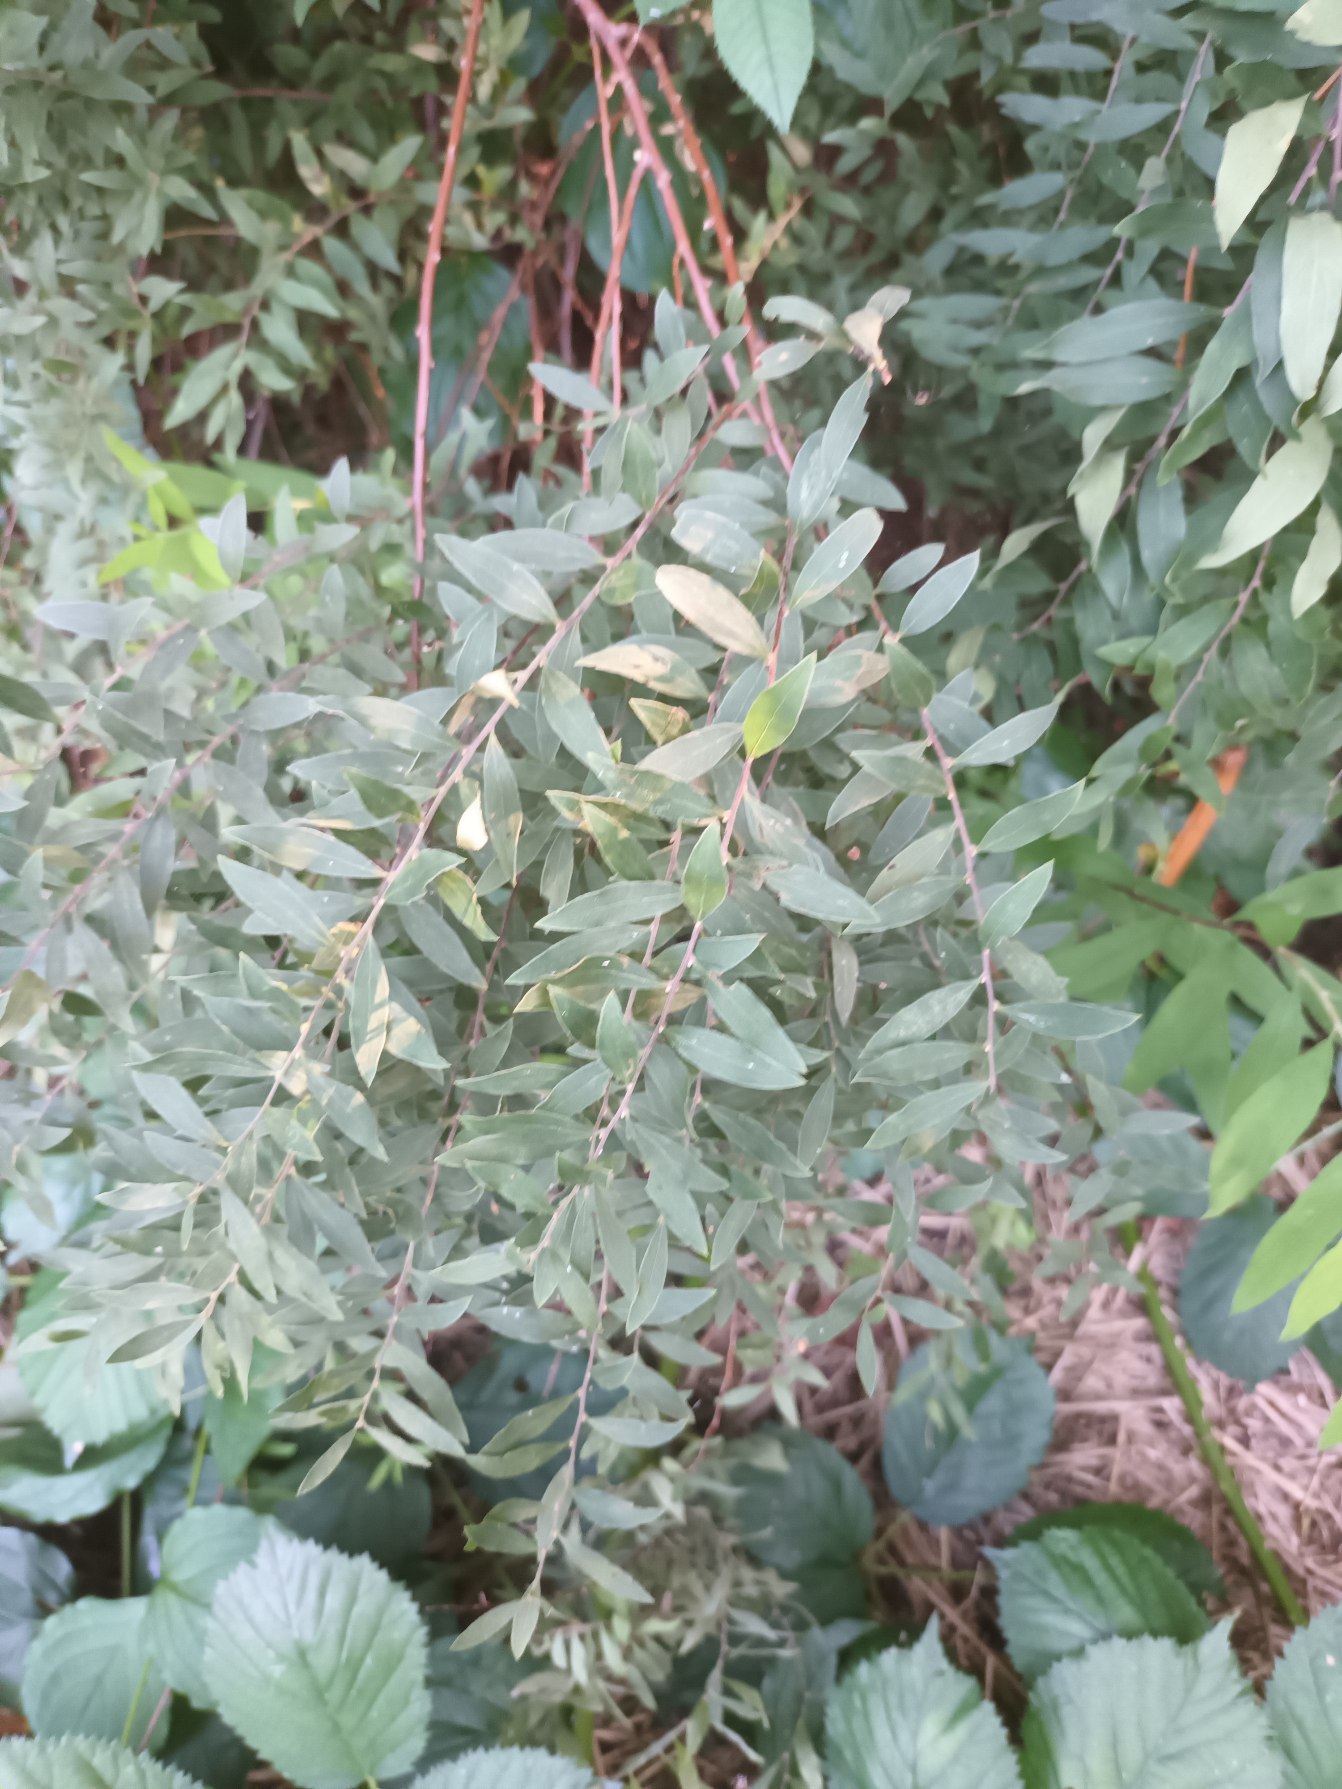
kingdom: Plantae
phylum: Tracheophyta
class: Magnoliopsida
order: Rosales
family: Rosaceae
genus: Spiraea
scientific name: Spiraea cinerea
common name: Grå spiræa
